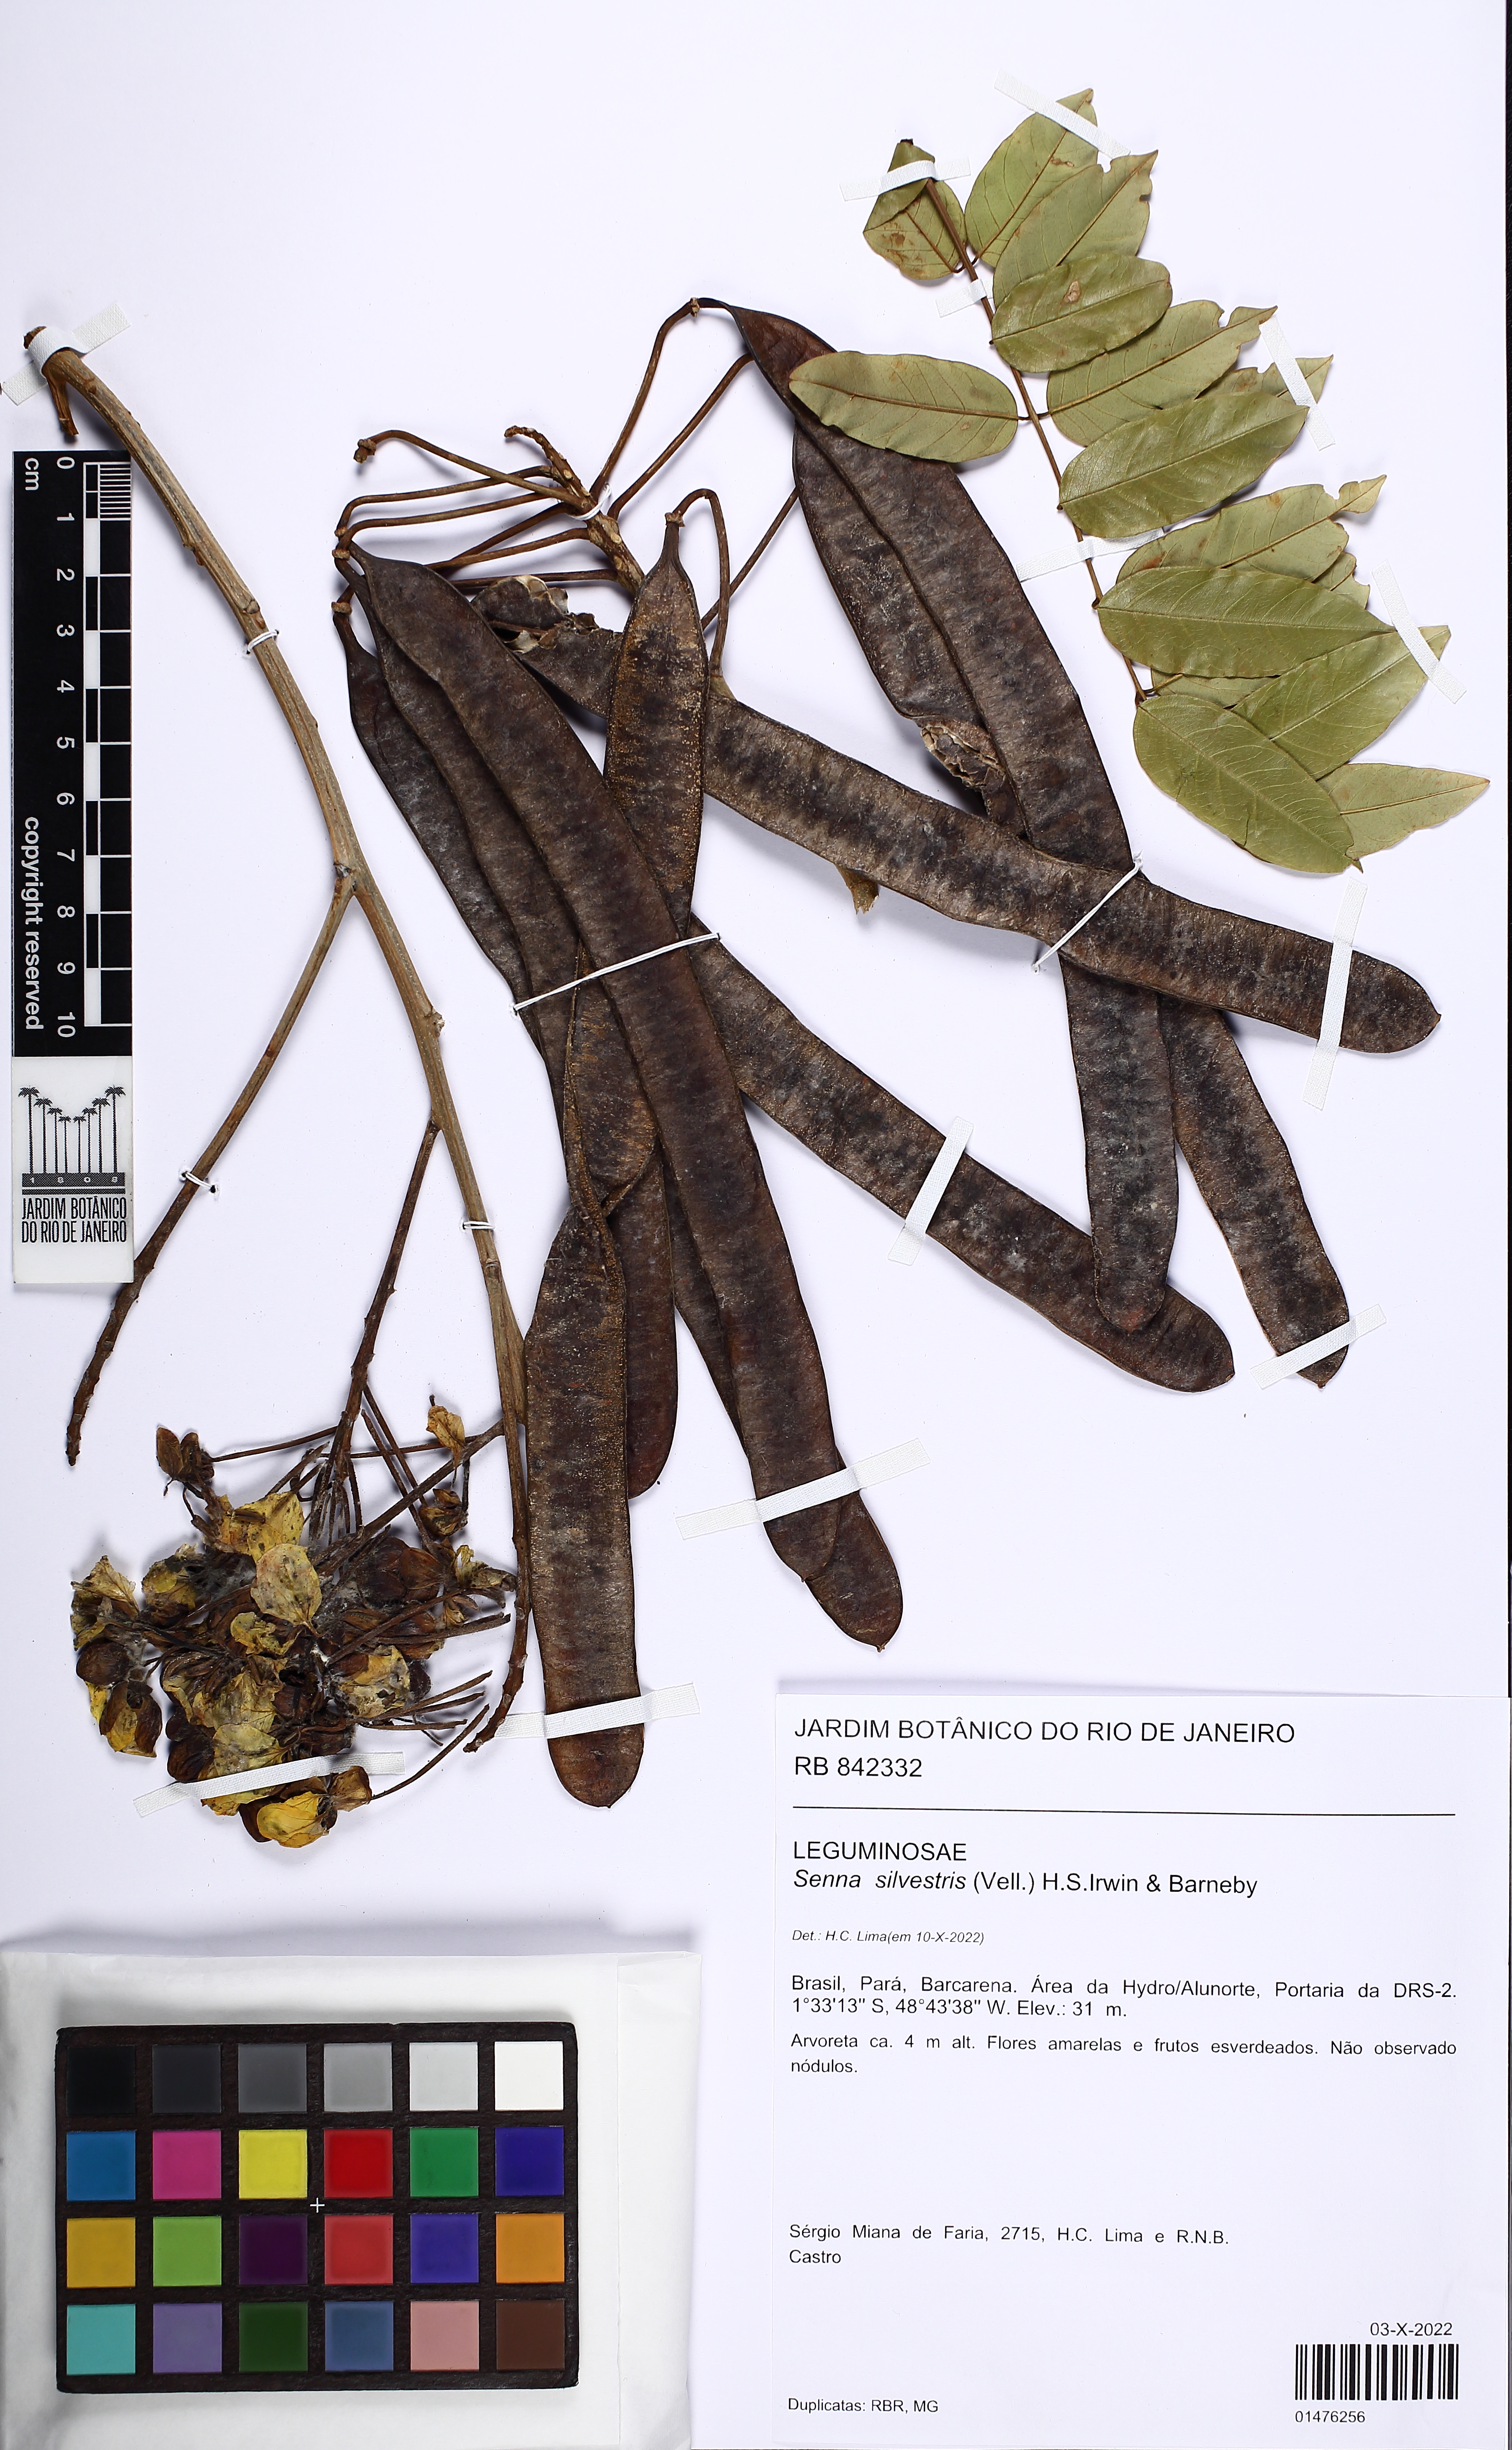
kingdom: Plantae
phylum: Tracheophyta
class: Magnoliopsida
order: Fabales
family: Fabaceae
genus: Senna
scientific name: Senna silvestris
